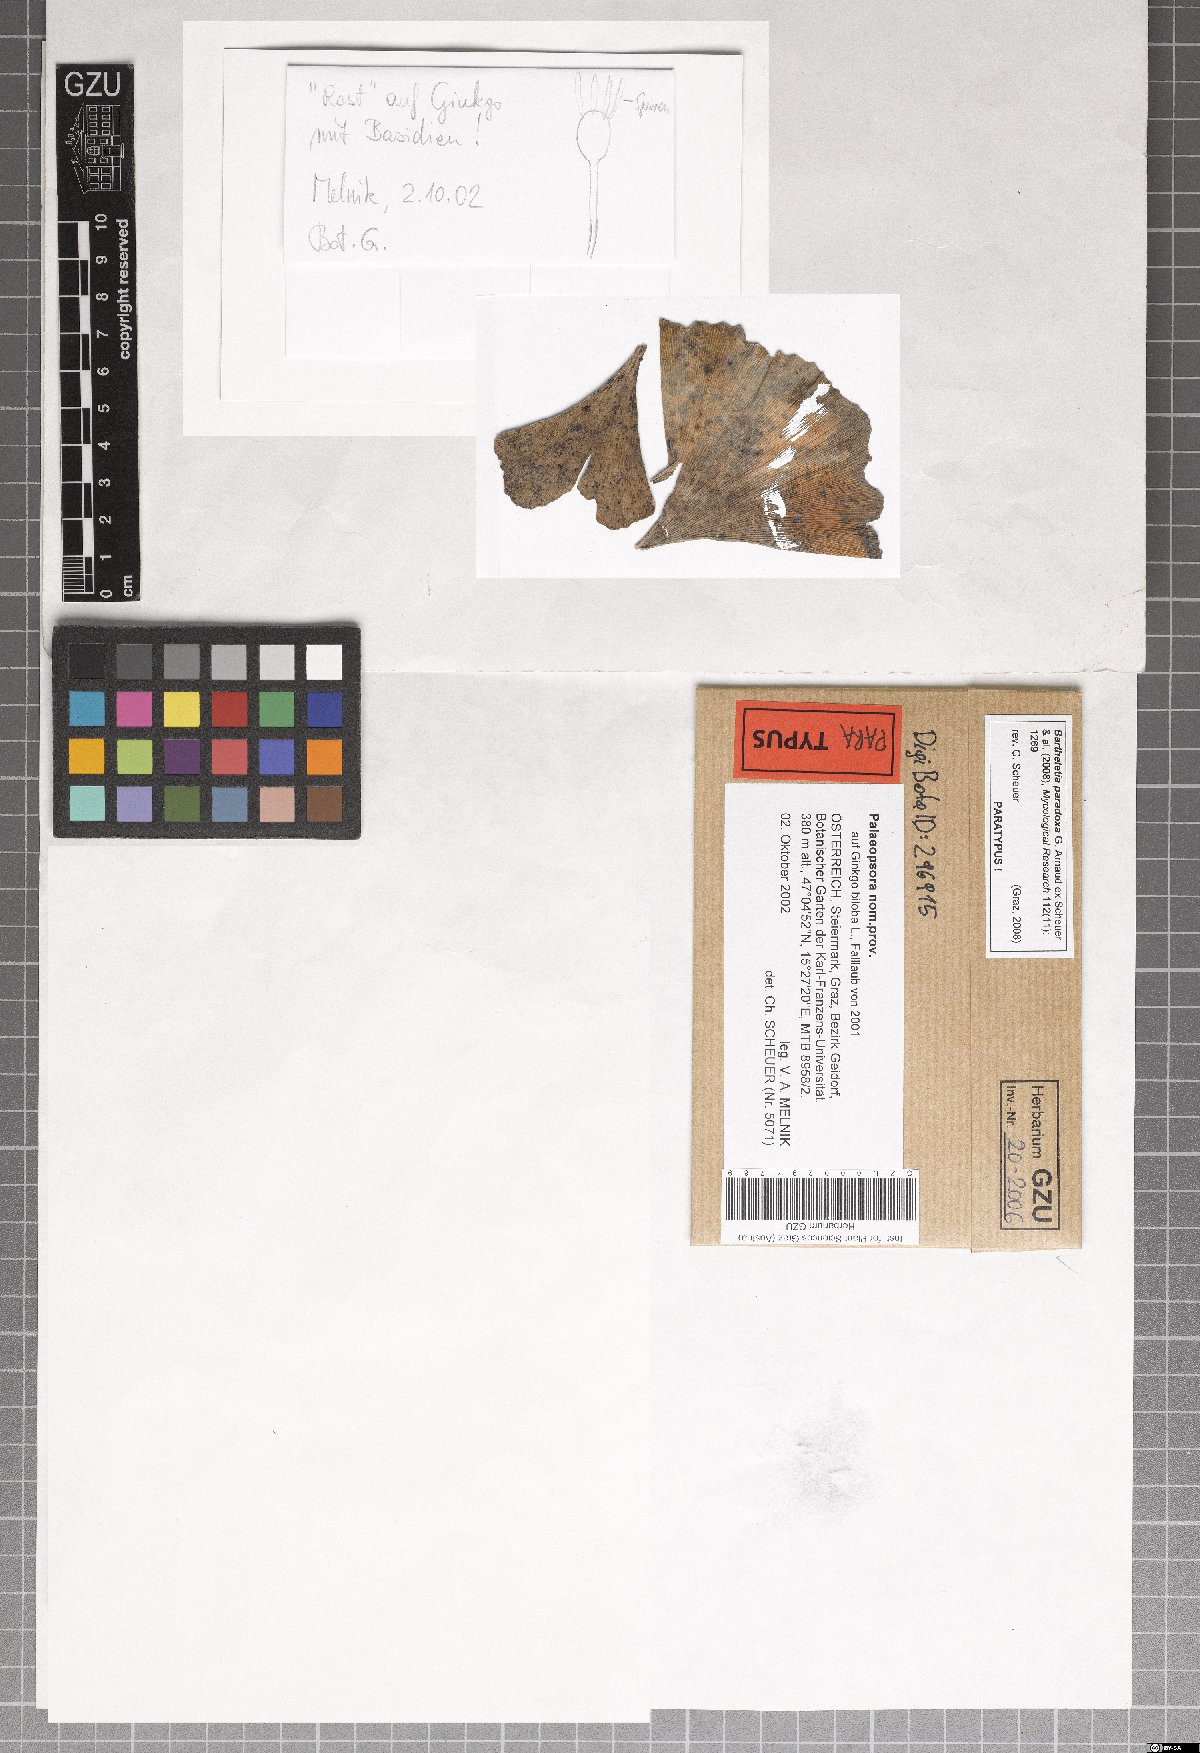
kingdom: Fungi
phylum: Basidiomycota
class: Wallemiomycetes
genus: Bartheletia
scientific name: Bartheletia paradoxa
